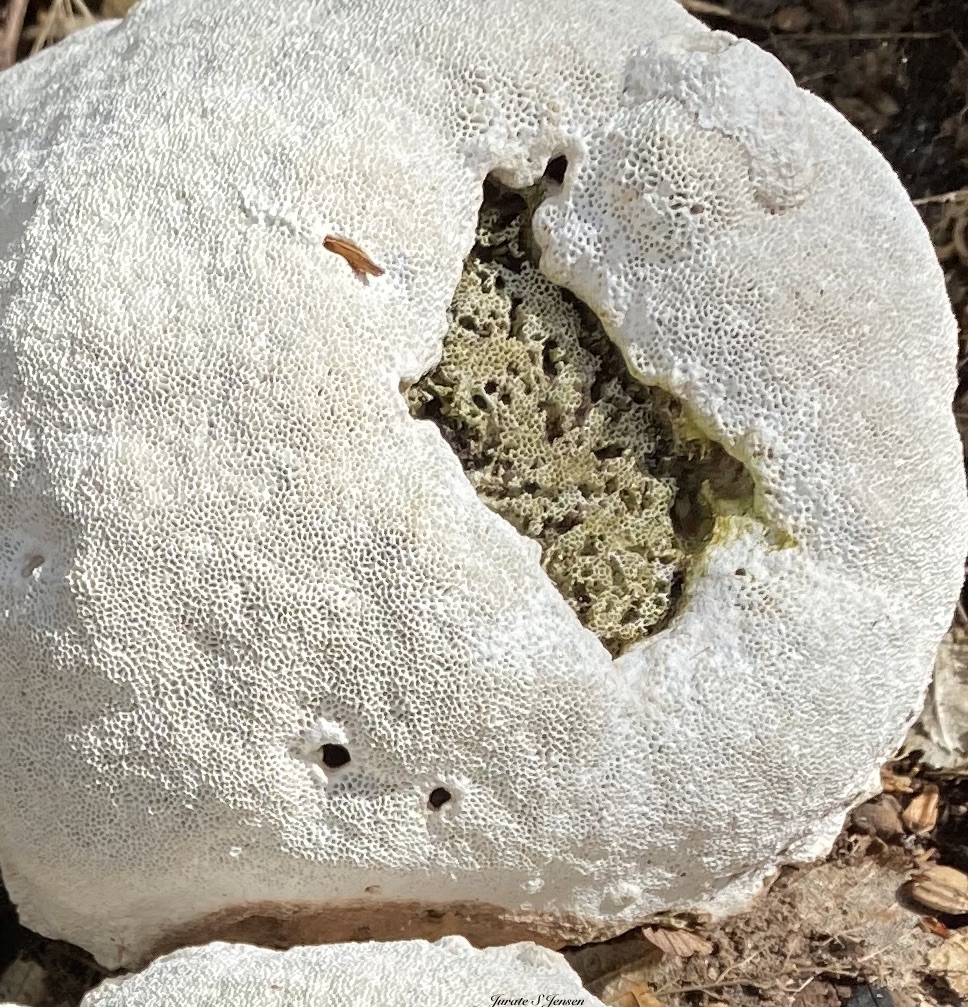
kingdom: Fungi
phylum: Basidiomycota
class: Agaricomycetes
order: Polyporales
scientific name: Polyporales
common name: poresvampordenen
